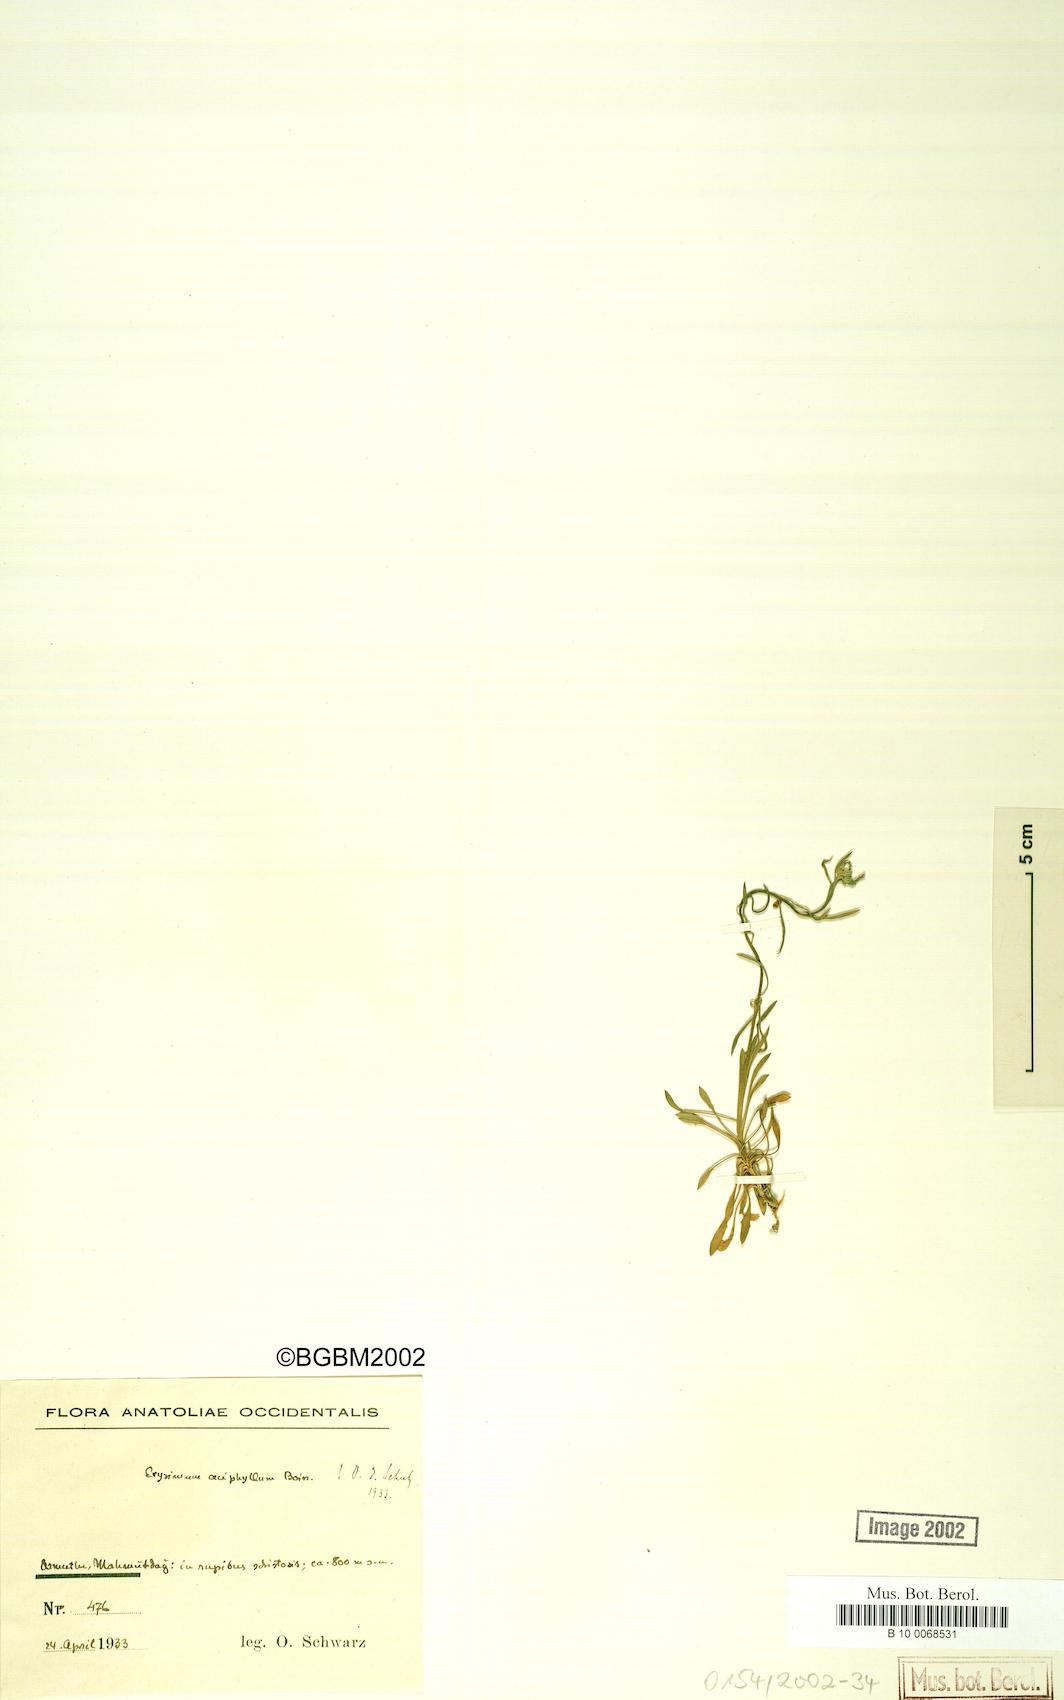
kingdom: Plantae
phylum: Tracheophyta
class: Magnoliopsida
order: Brassicales
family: Brassicaceae
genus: Erysimum
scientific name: Erysimum leptocarpum
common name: Thin-fruited tracle mustard
